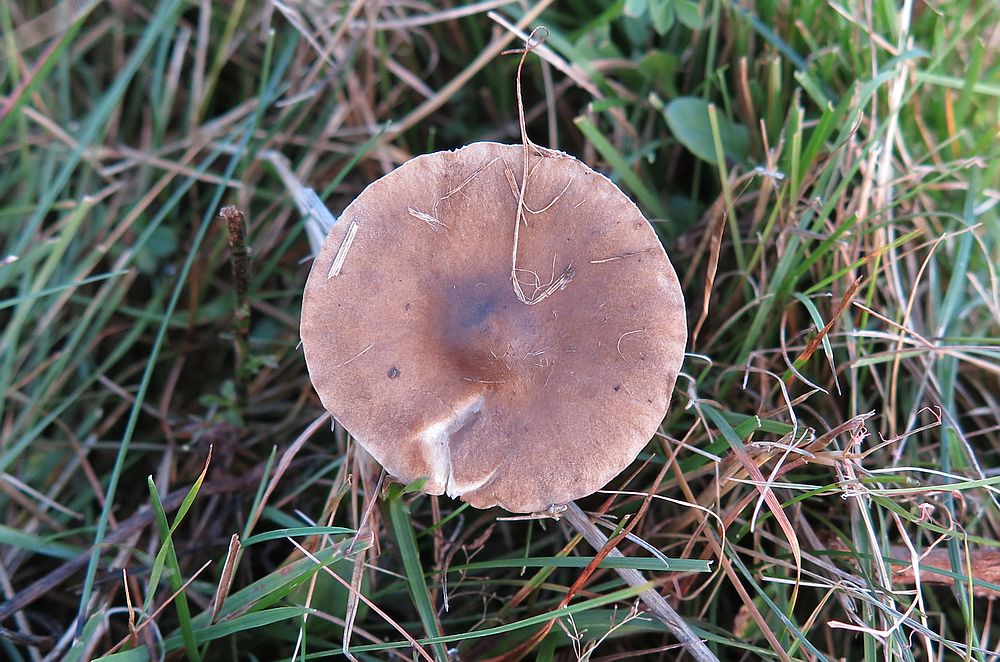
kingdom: Fungi
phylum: Basidiomycota
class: Agaricomycetes
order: Agaricales
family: Tricholomataceae
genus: Melanoleuca
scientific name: Melanoleuca oreina
